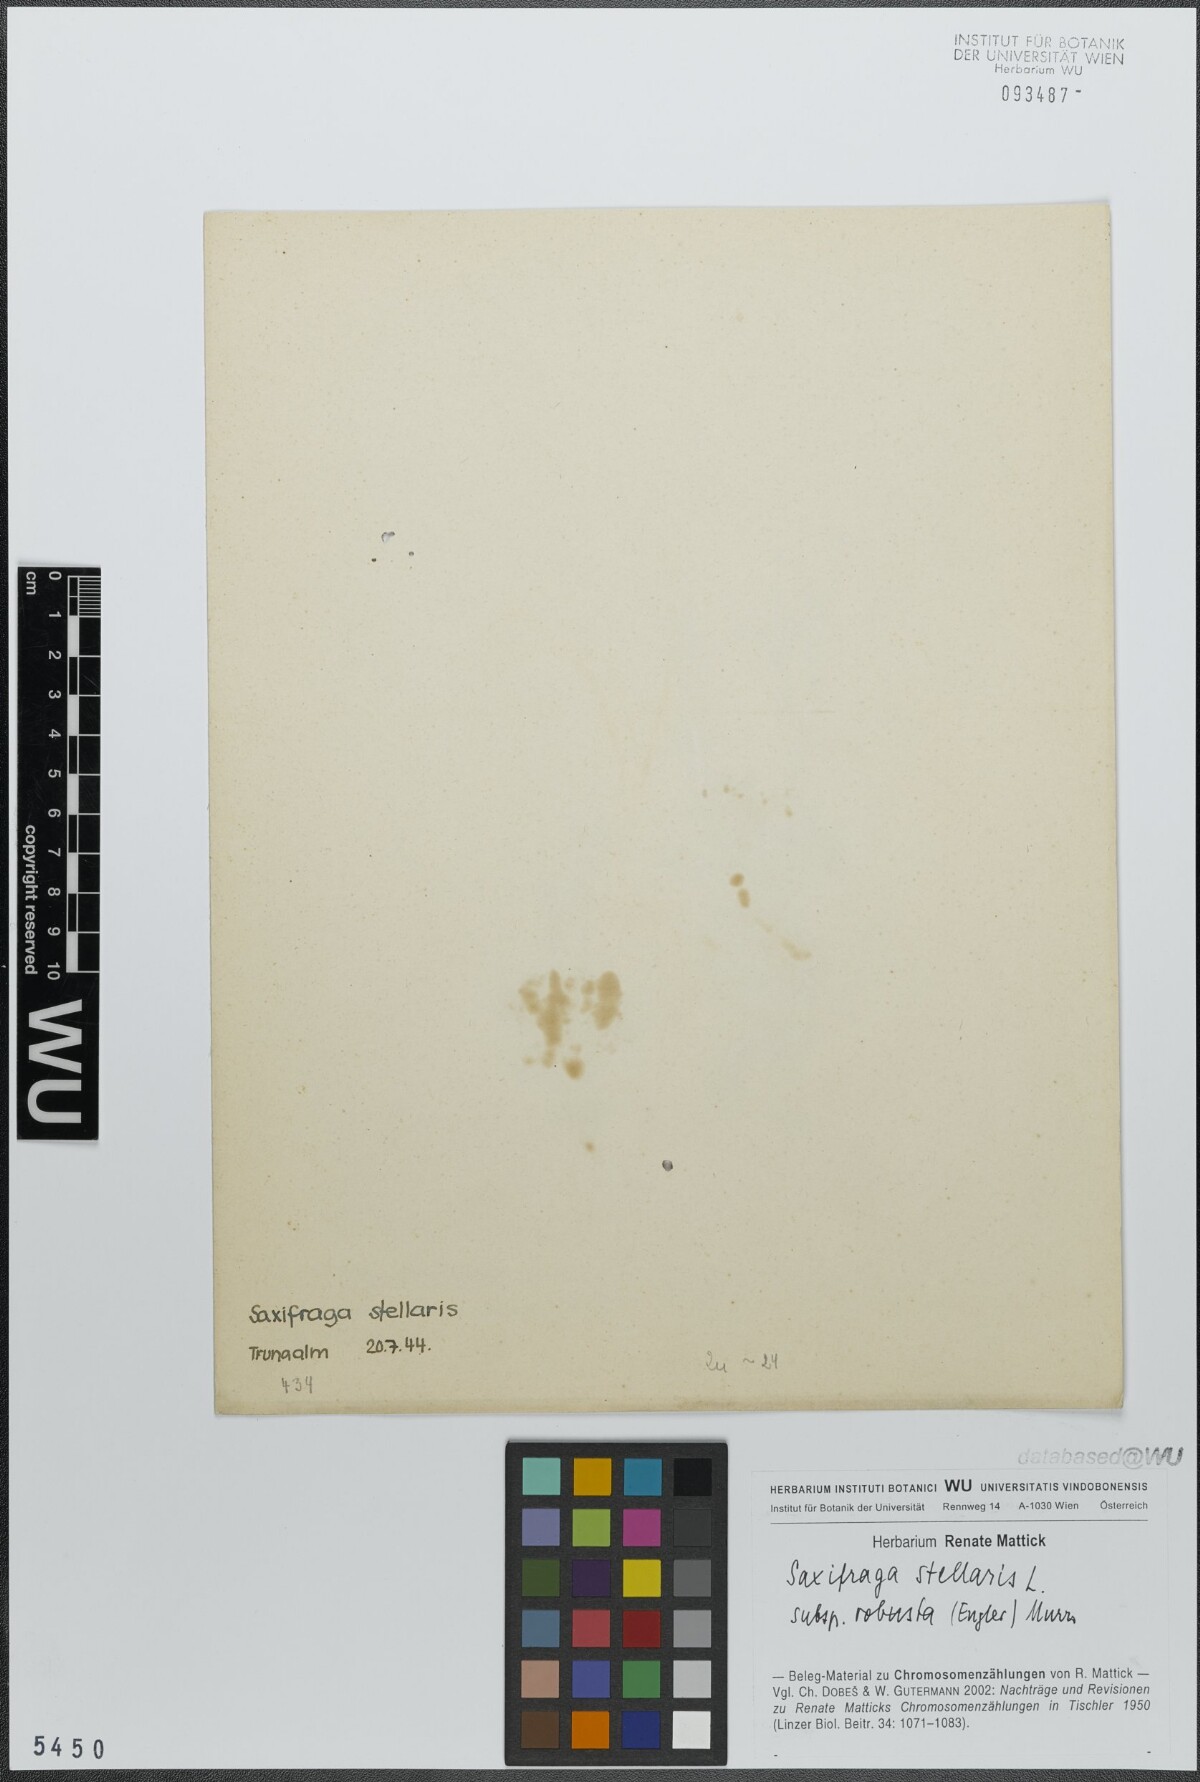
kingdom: Plantae
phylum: Tracheophyta
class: Magnoliopsida
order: Saxifragales
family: Saxifragaceae
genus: Micranthes
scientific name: Micranthes stellaris
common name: Starry saxifrage
